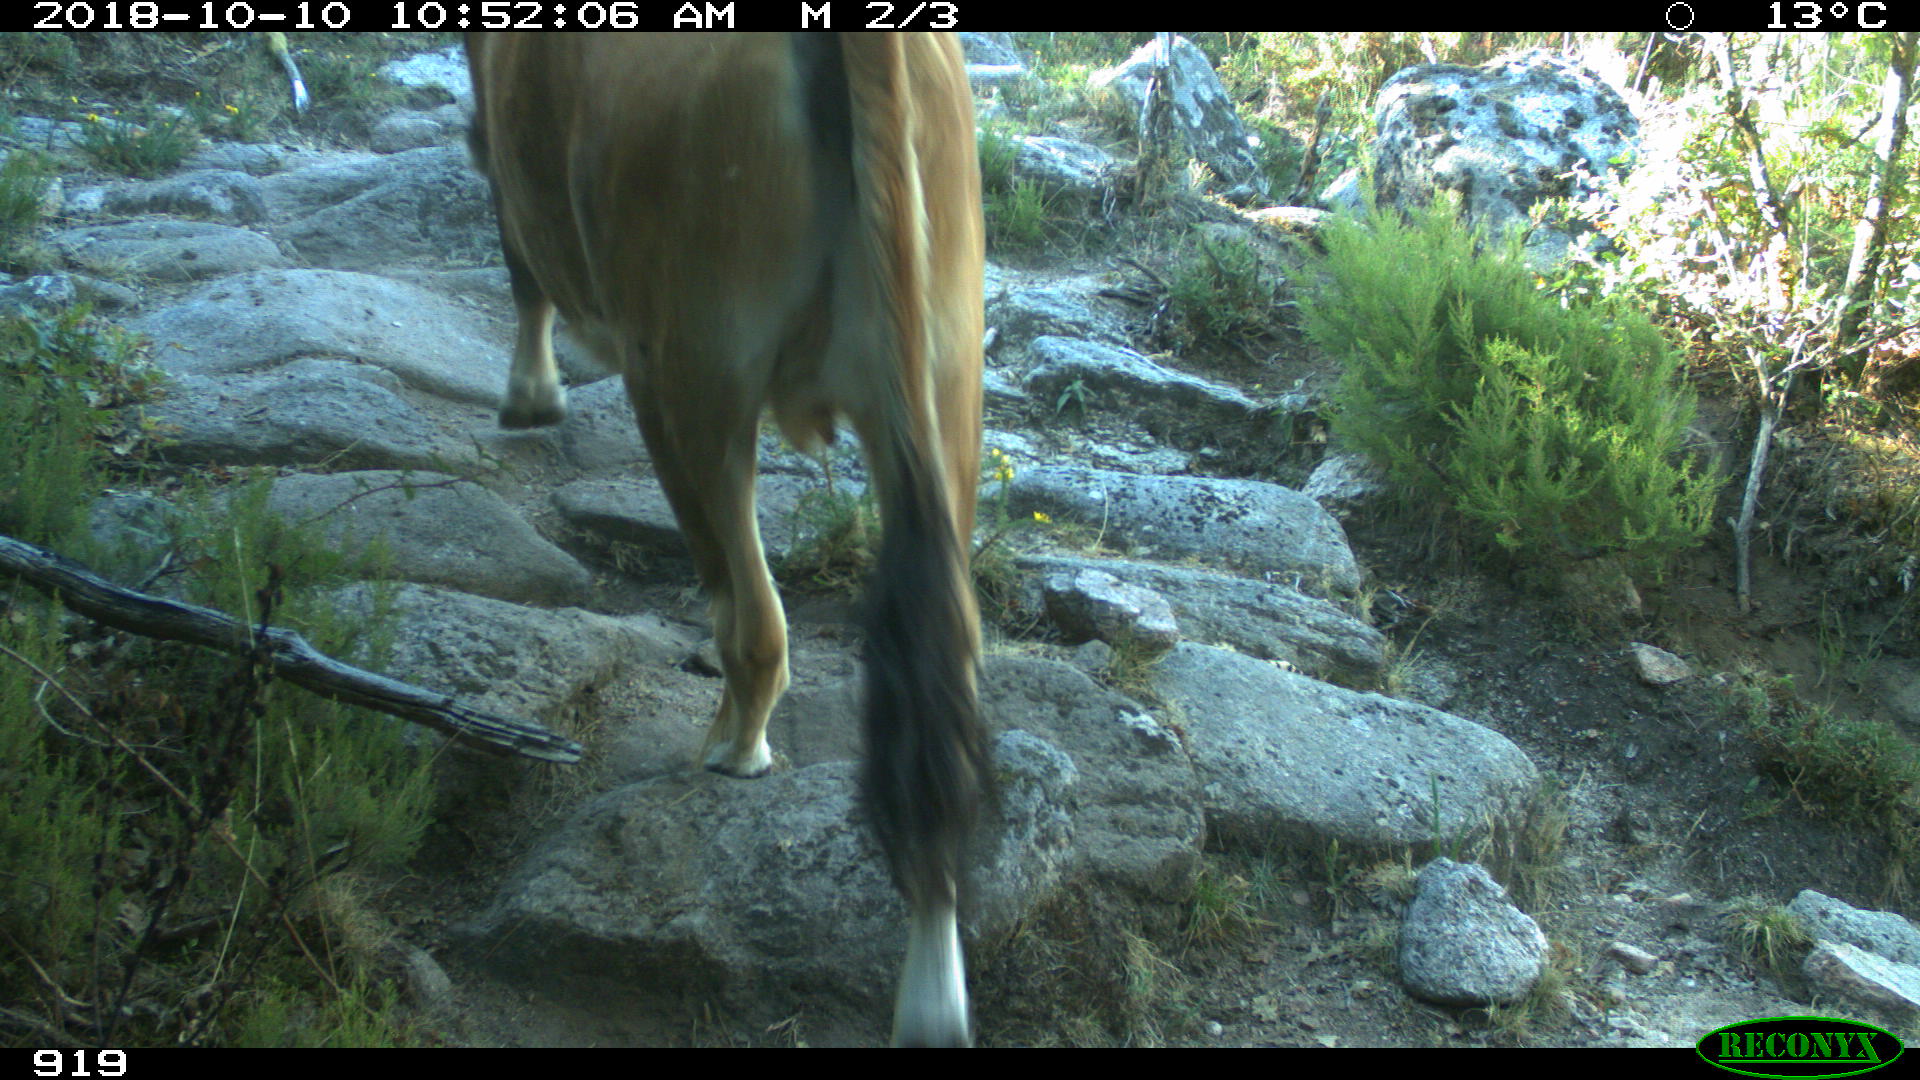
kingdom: Animalia
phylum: Chordata
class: Mammalia
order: Artiodactyla
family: Bovidae
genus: Bos
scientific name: Bos taurus
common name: Domesticated cattle
